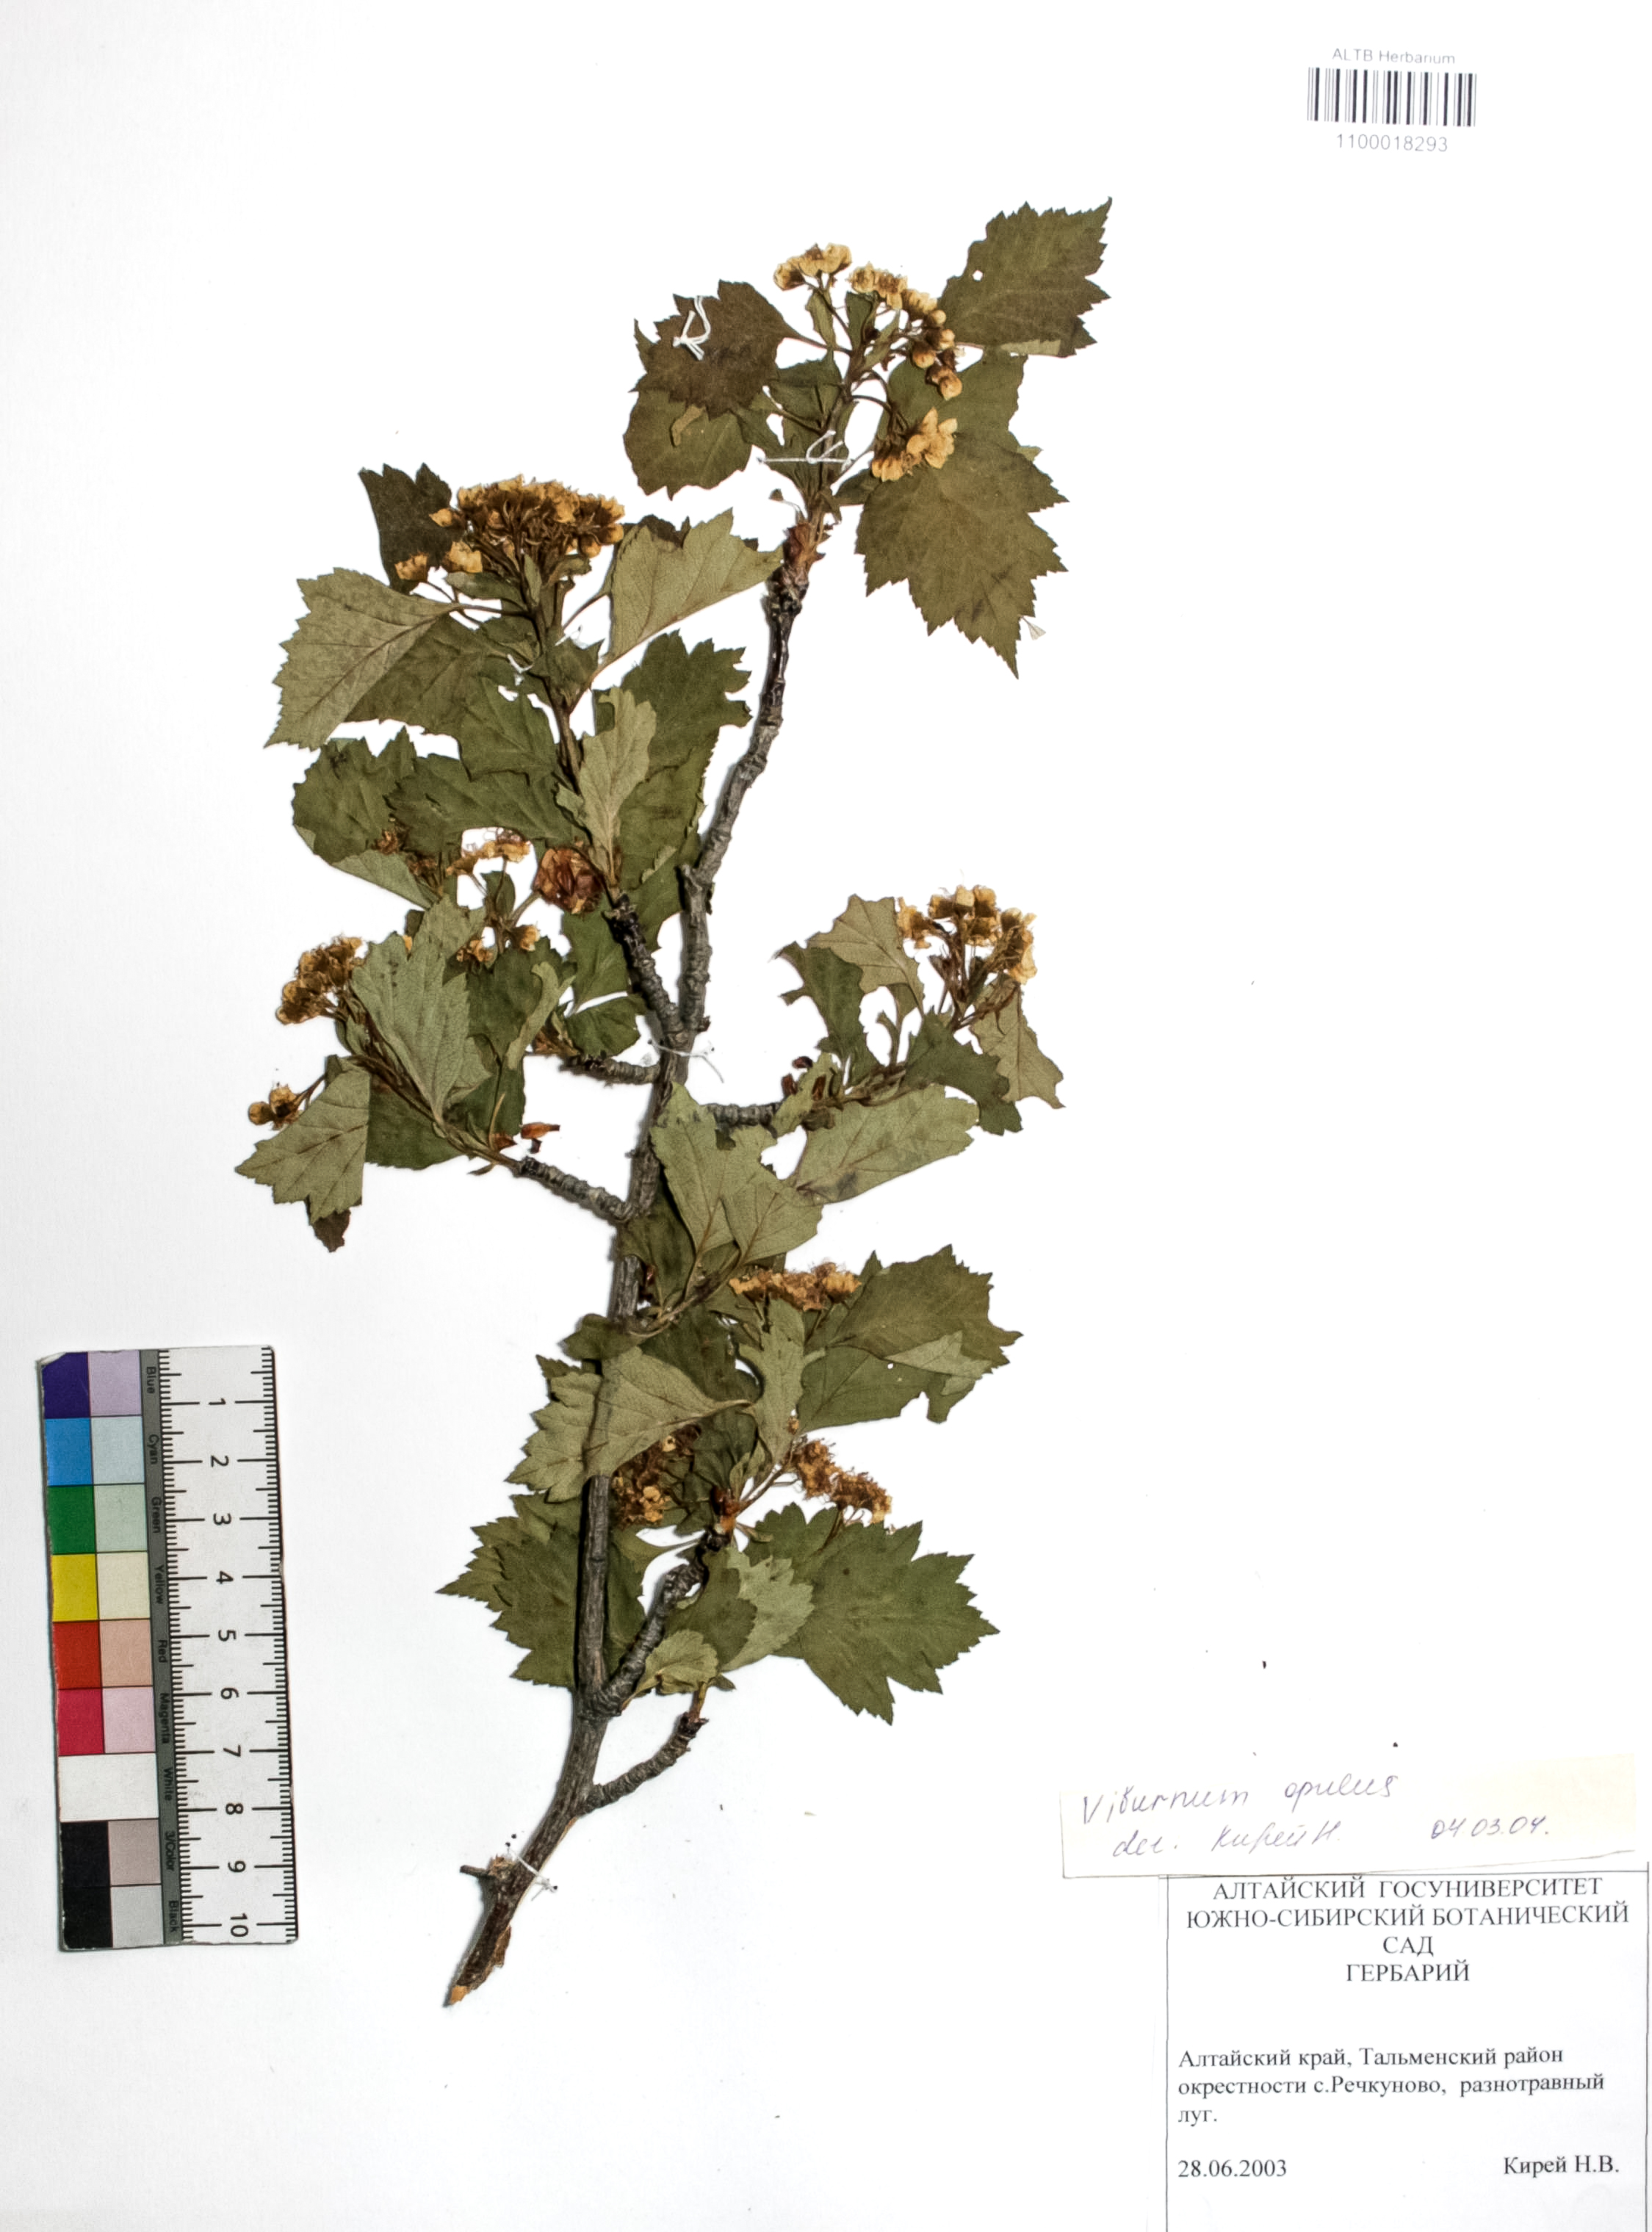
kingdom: Plantae
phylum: Tracheophyta
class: Magnoliopsida
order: Dipsacales
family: Viburnaceae
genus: Viburnum
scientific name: Viburnum opulus
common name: Guelder-rose
